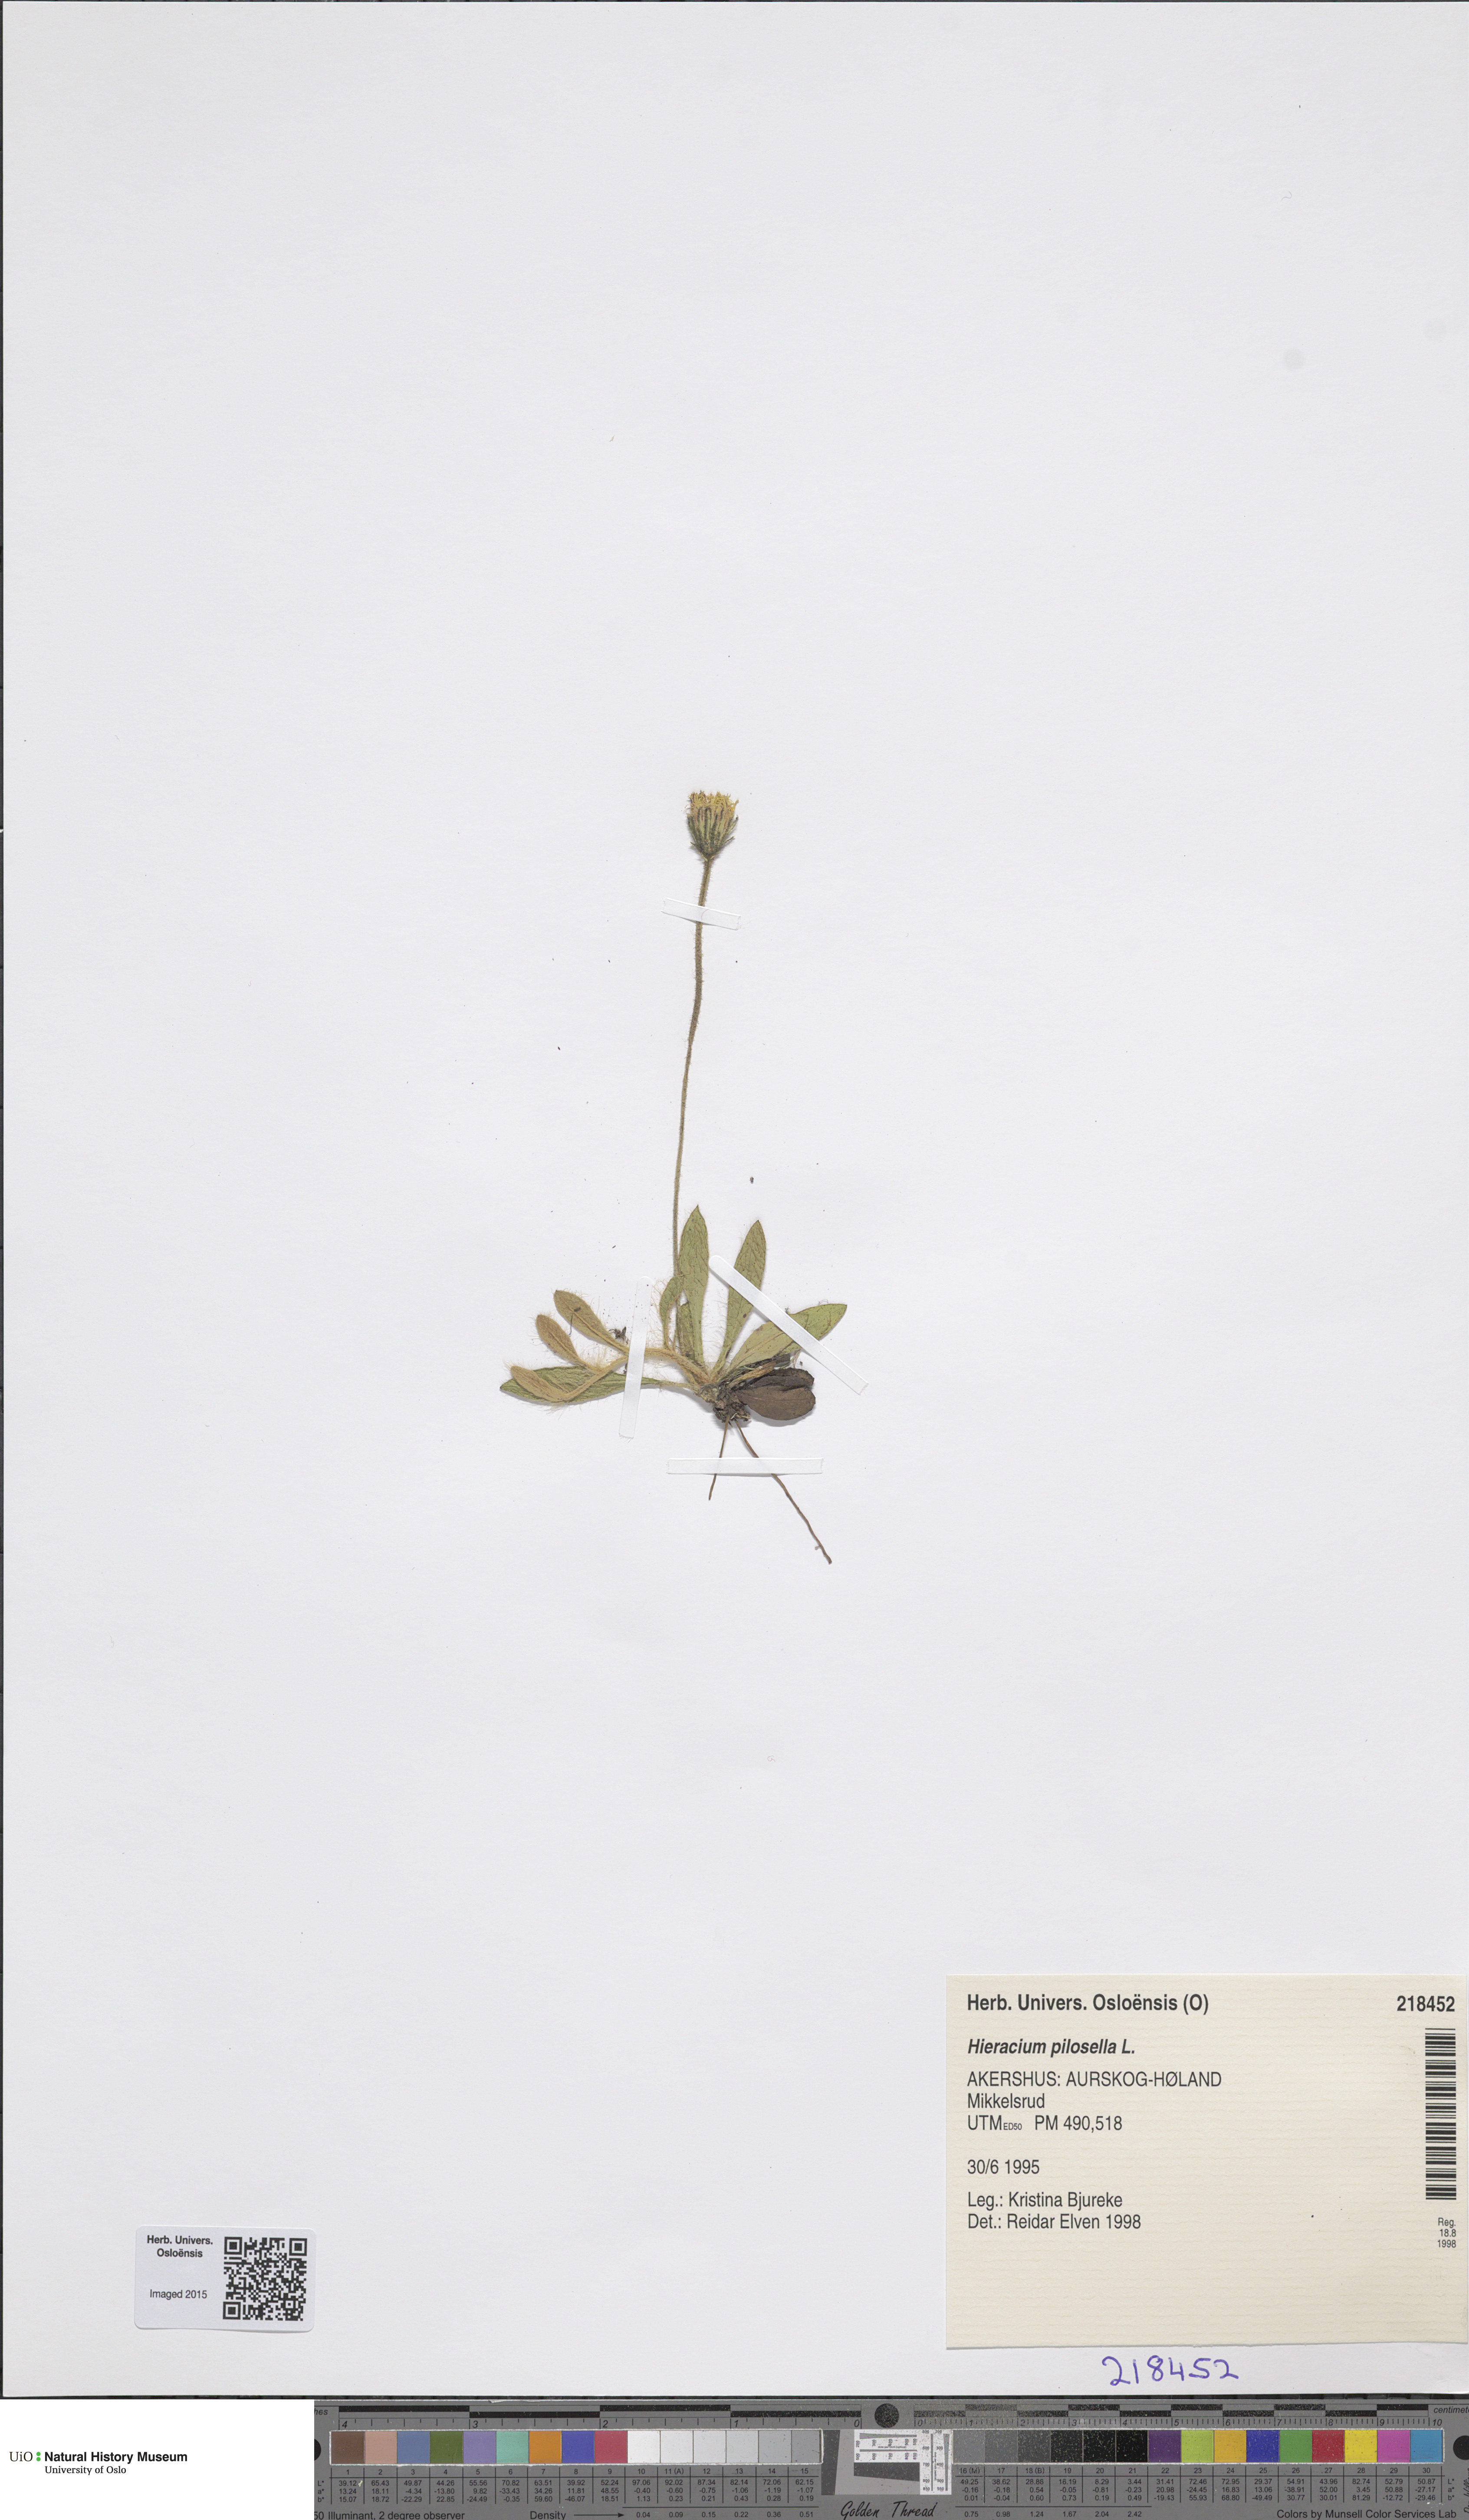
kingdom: Plantae
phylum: Tracheophyta
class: Magnoliopsida
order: Asterales
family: Asteraceae
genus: Pilosella
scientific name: Pilosella officinarum
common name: Mouse-ear hawkweed
